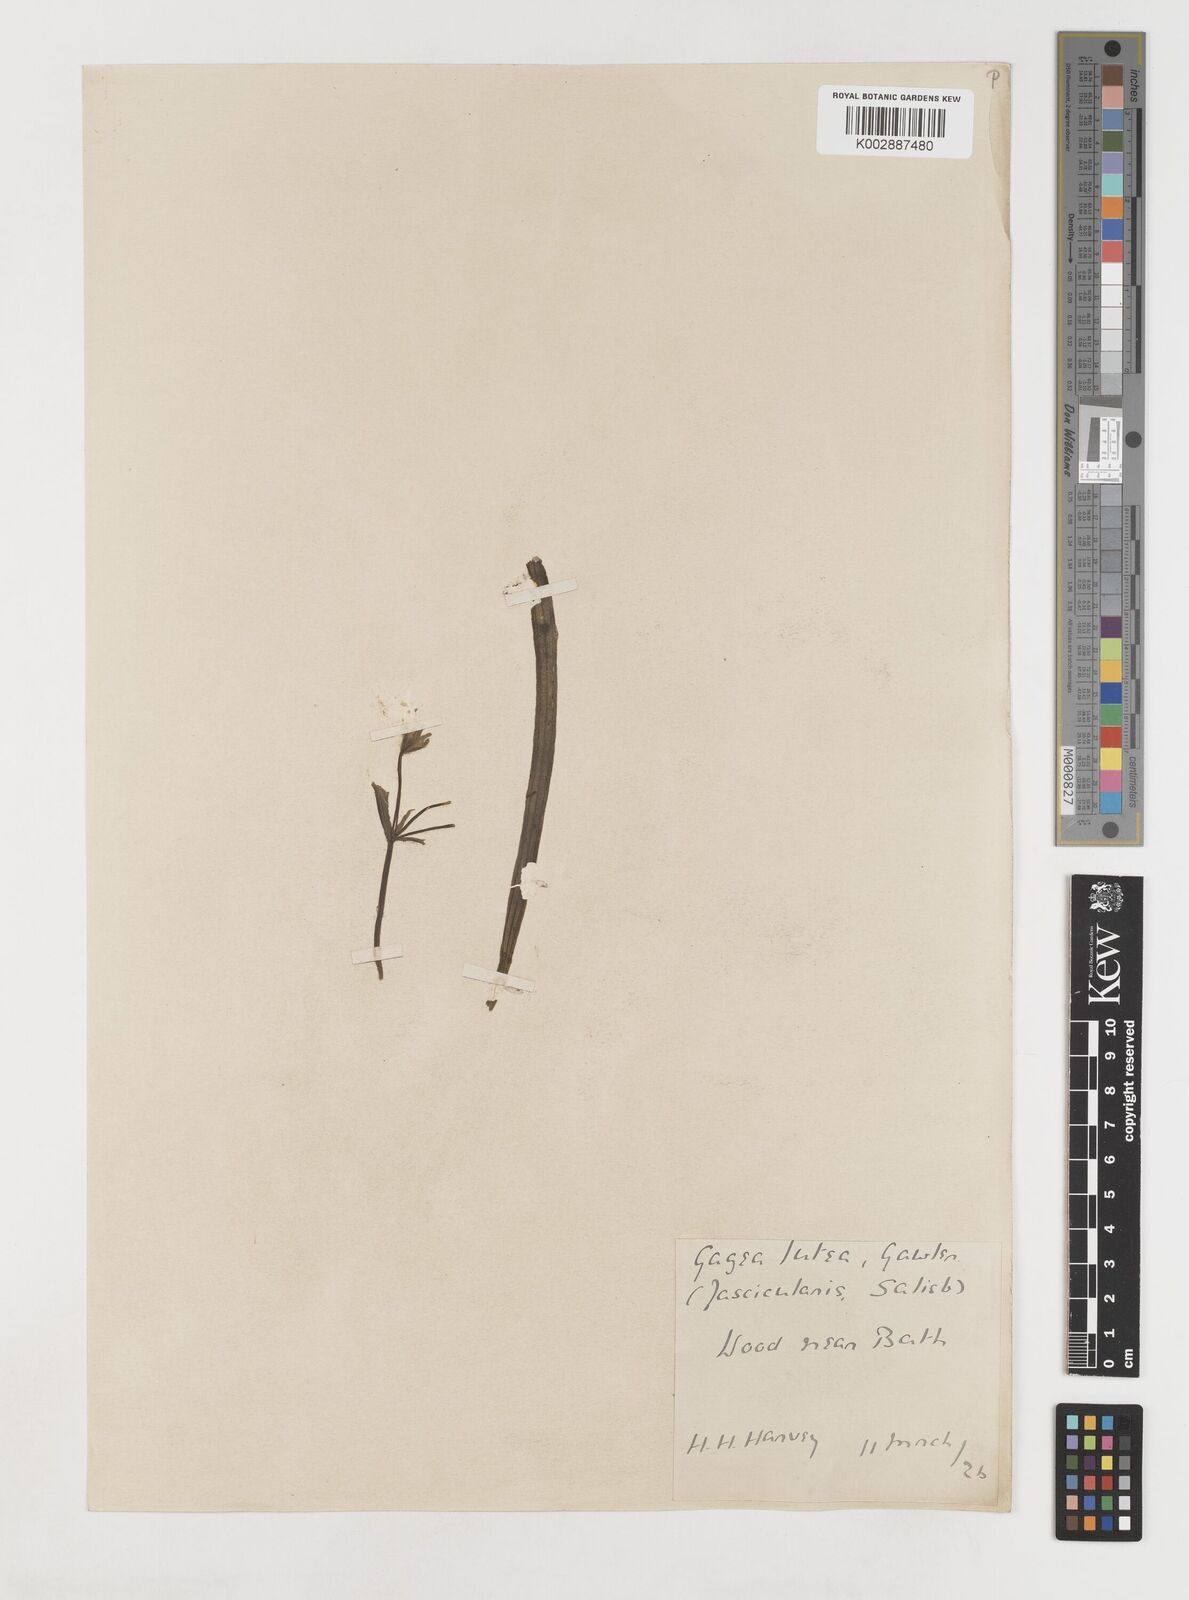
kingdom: Plantae
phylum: Tracheophyta
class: Liliopsida
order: Liliales
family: Liliaceae
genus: Gagea
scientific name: Gagea lutea
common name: Yellow star-of-bethlehem
